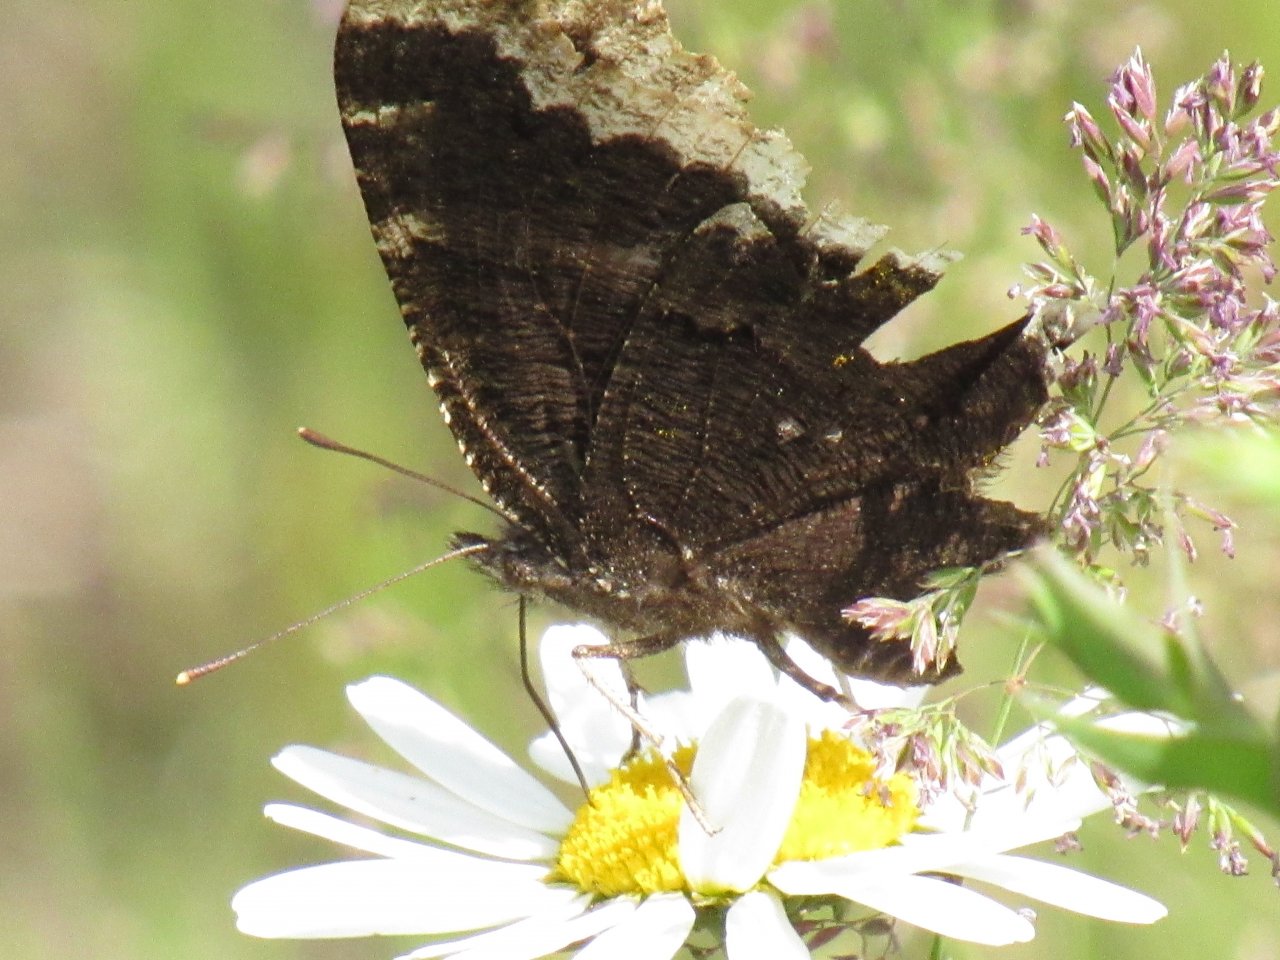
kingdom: Animalia
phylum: Arthropoda
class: Insecta
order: Lepidoptera
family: Nymphalidae
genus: Nymphalis
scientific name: Nymphalis antiopa
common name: Mourning Cloak
